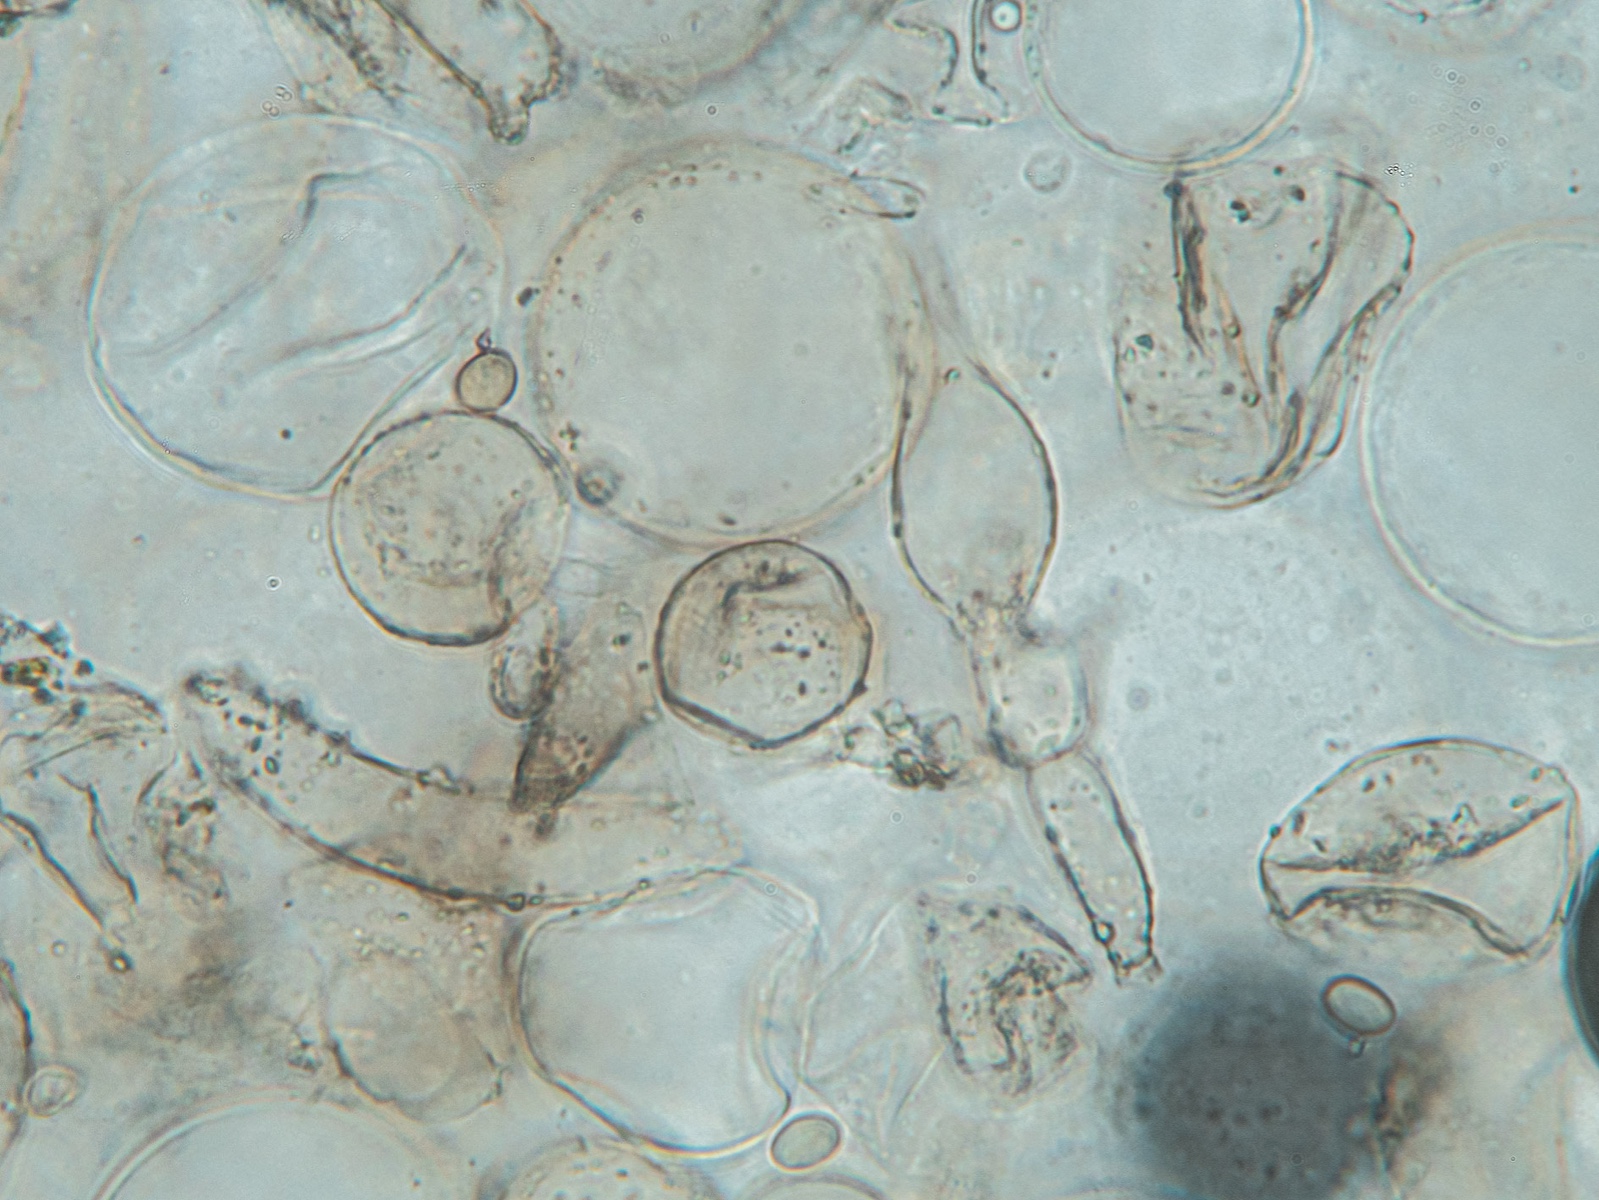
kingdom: Fungi
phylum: Basidiomycota
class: Agaricomycetes
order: Agaricales
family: Psathyrellaceae
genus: Coprinopsis
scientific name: Coprinopsis stercorea
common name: pjusket blækhat
